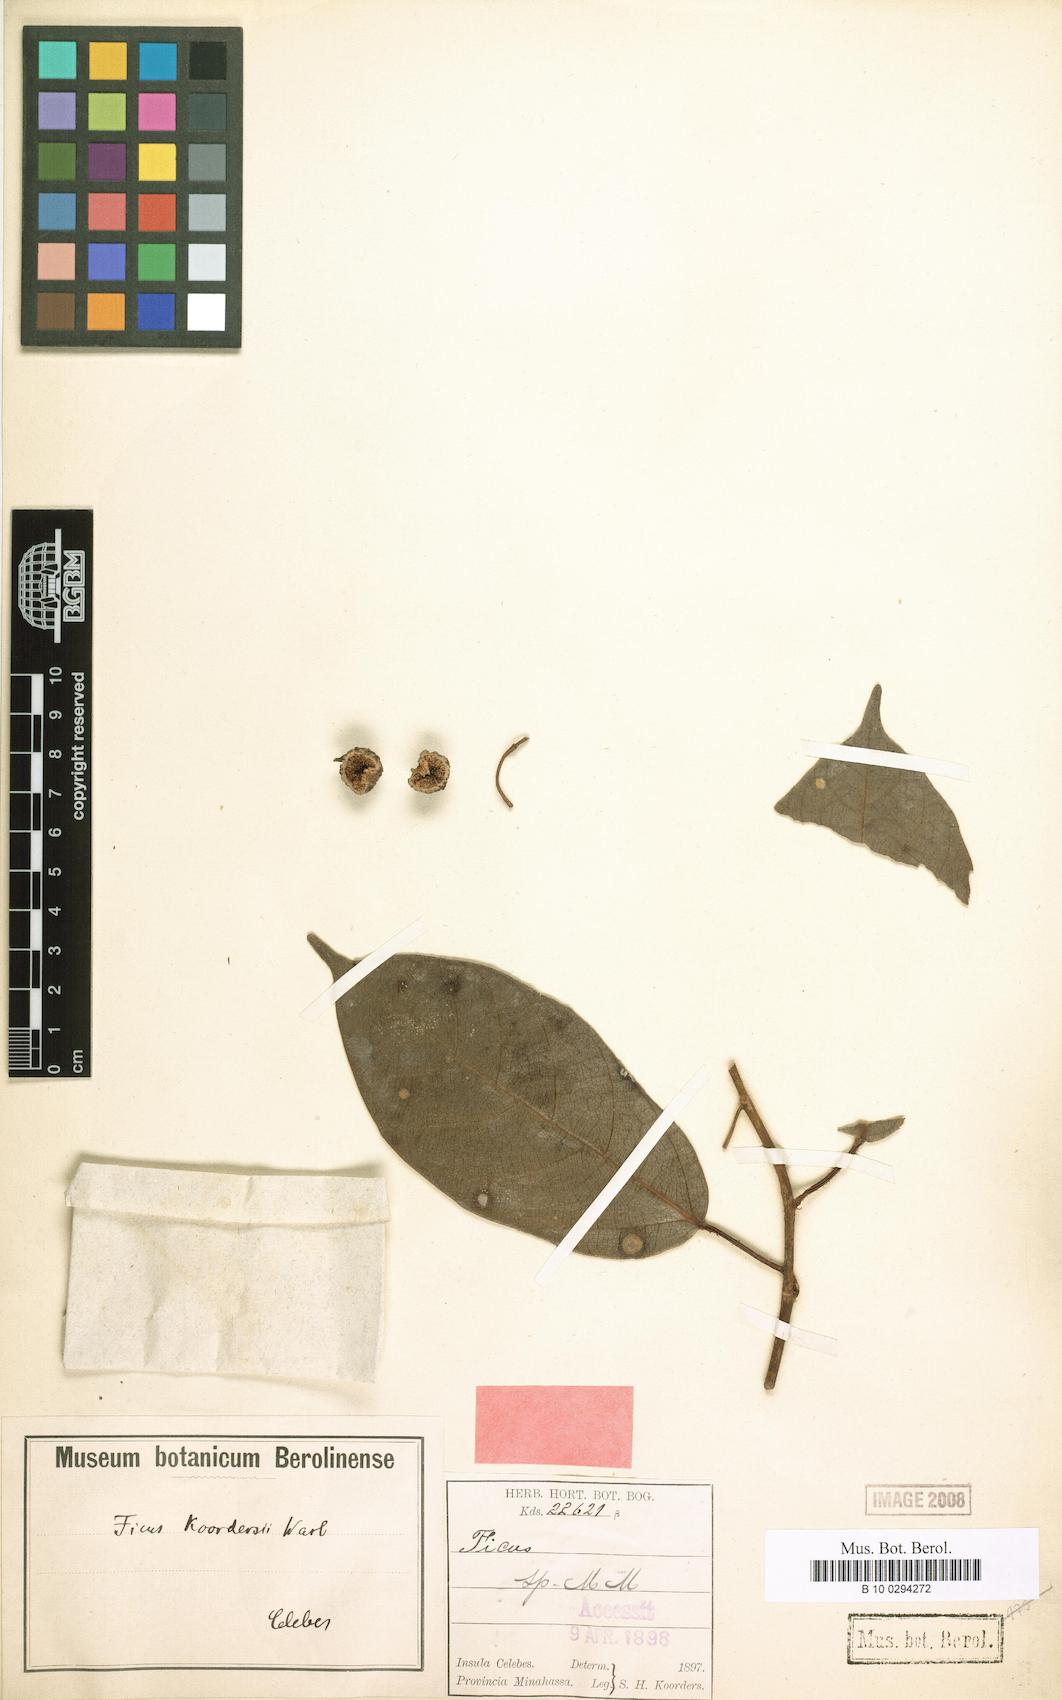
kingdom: Plantae
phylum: Tracheophyta
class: Magnoliopsida
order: Rosales
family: Moraceae
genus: Ficus
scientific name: Ficus
